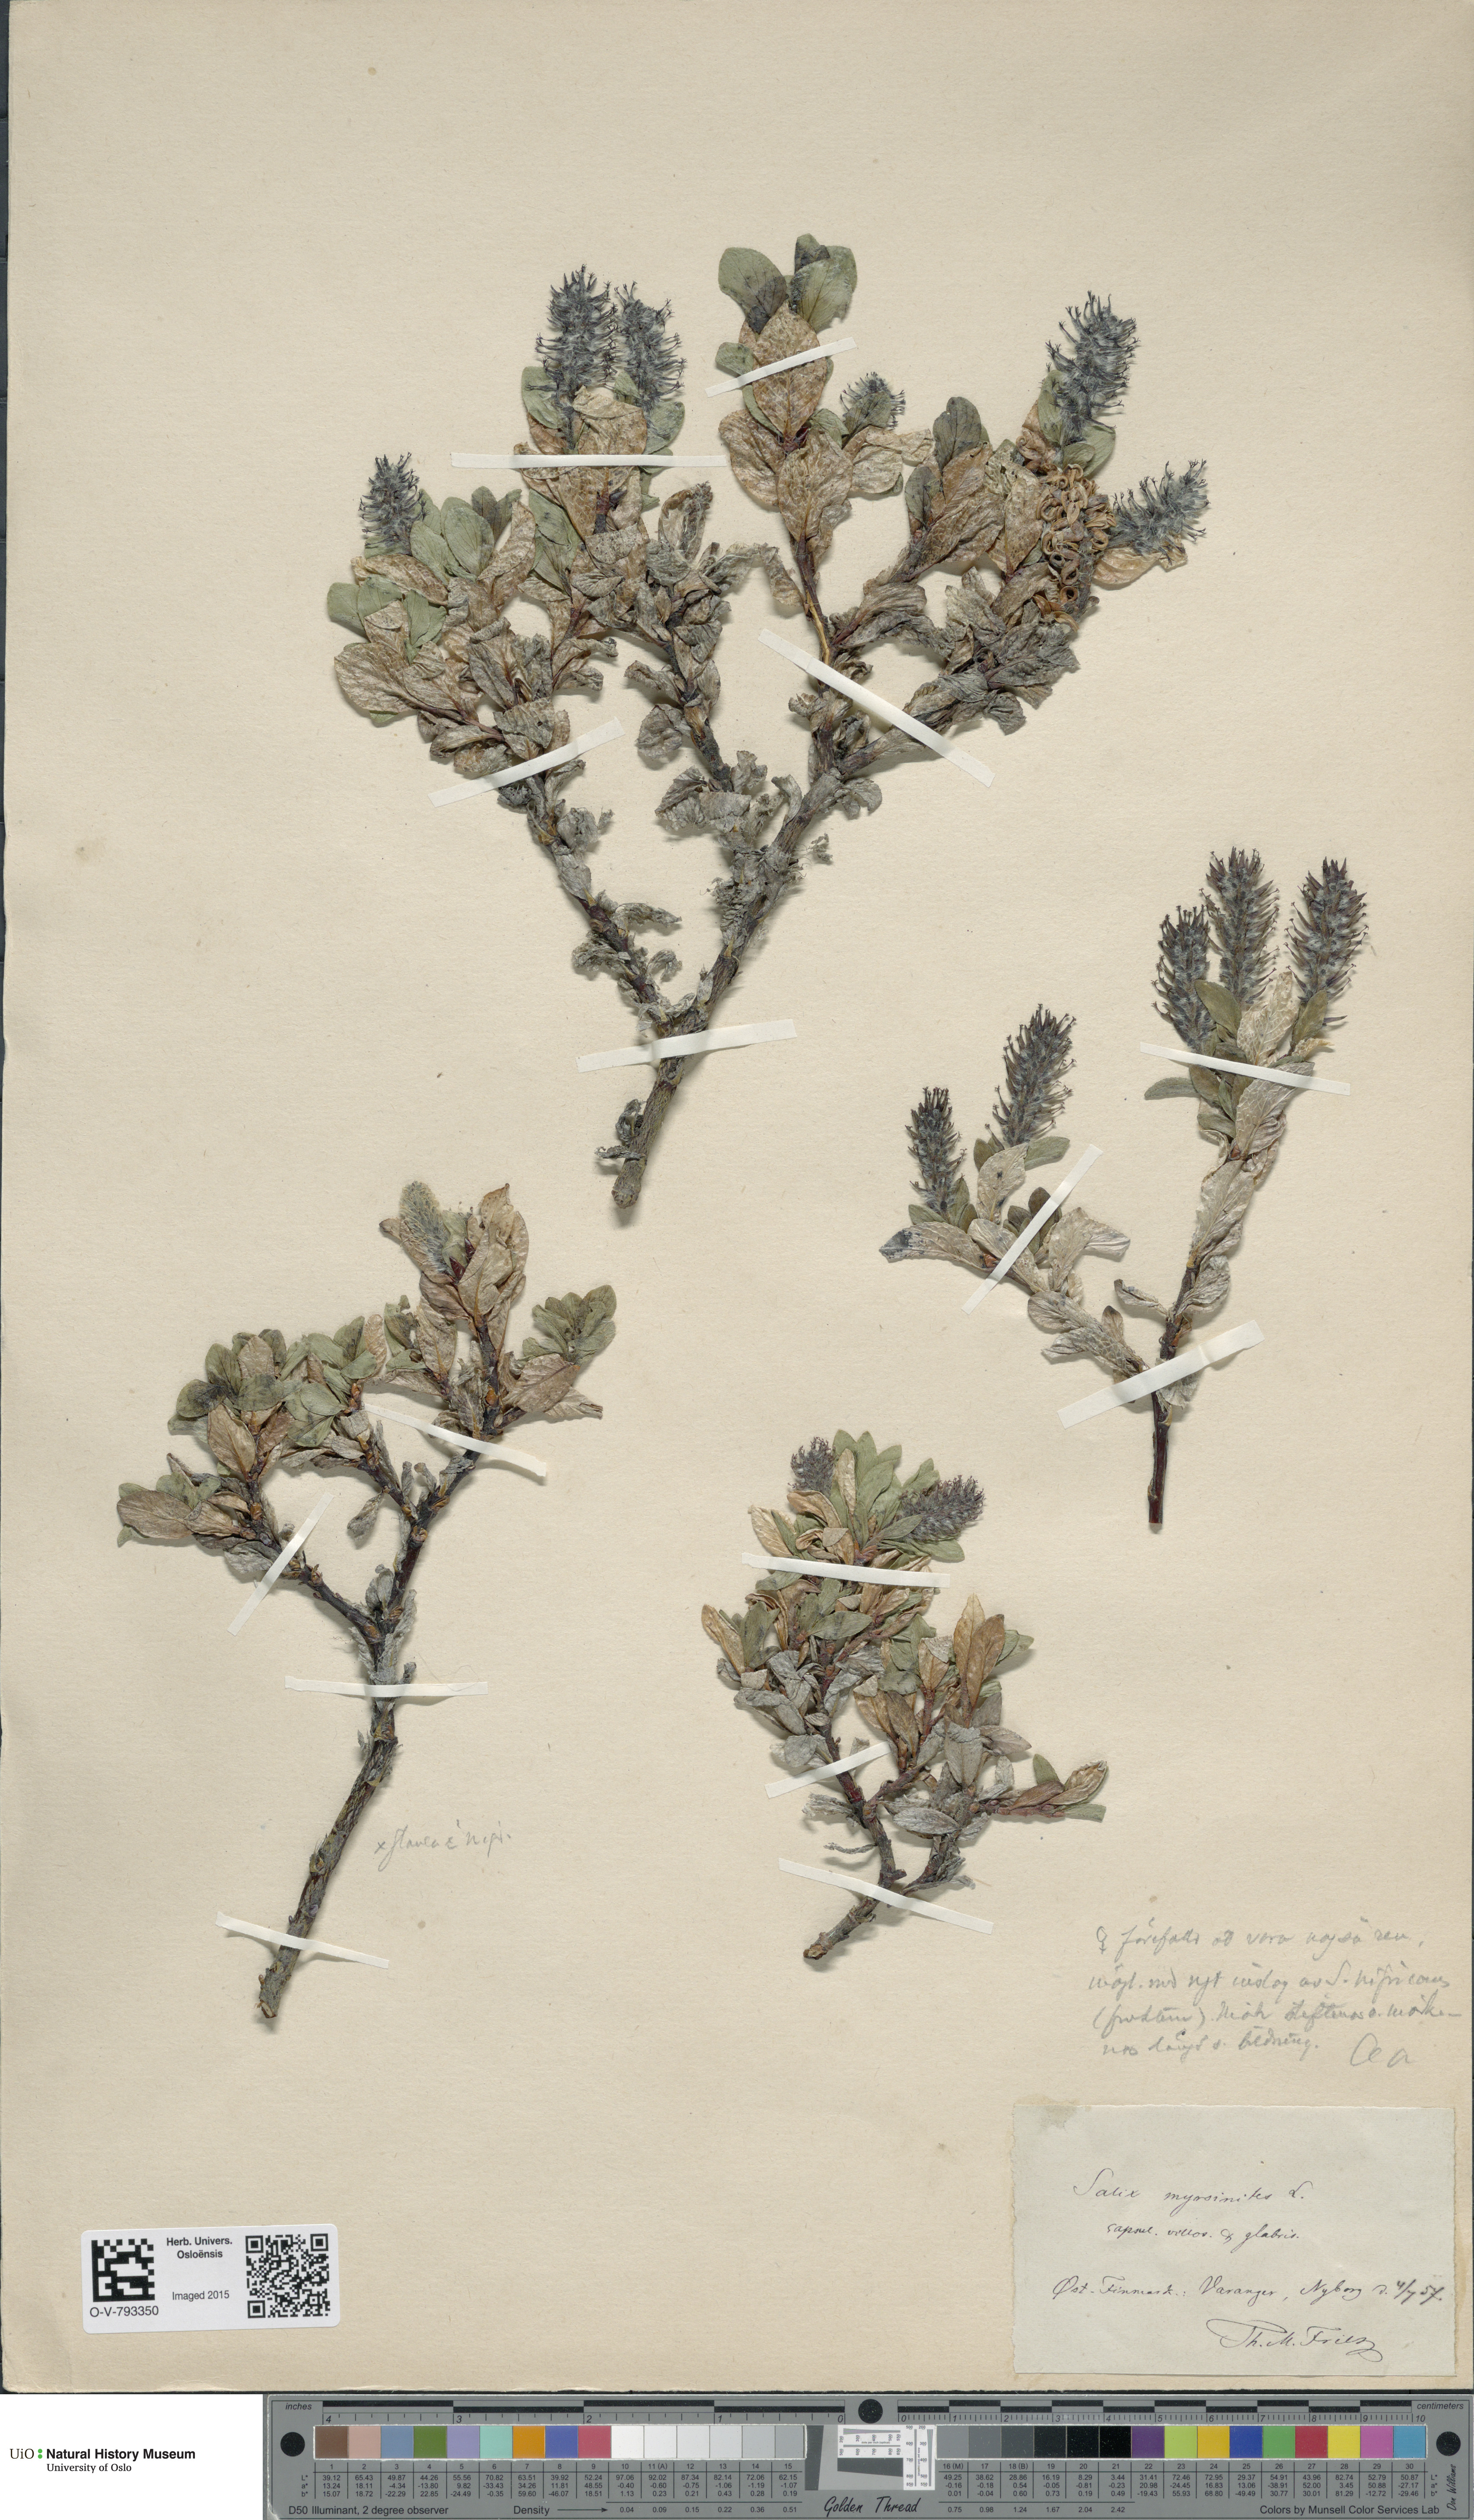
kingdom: Plantae
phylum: Tracheophyta
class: Magnoliopsida
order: Malpighiales
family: Salicaceae
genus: Salix
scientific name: Salix myrsinites
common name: Myrtle willow
